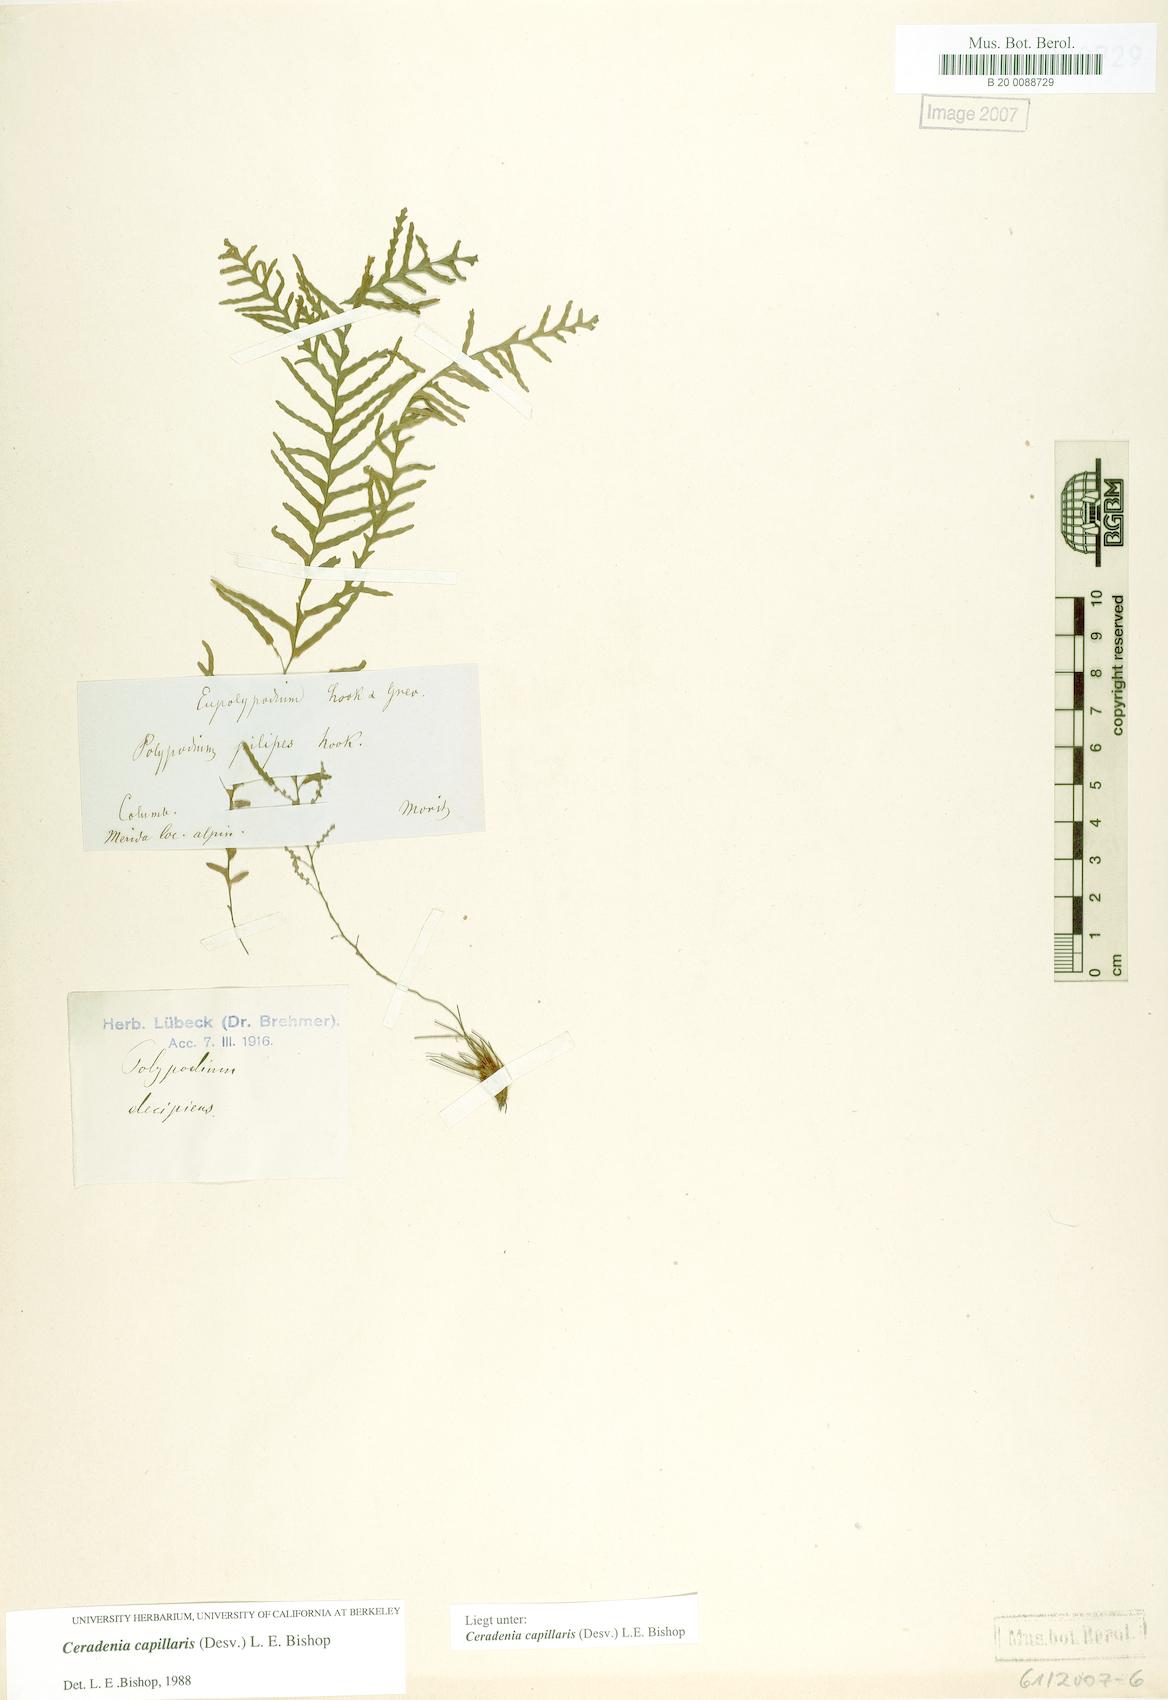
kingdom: Plantae
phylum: Tracheophyta
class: Polypodiopsida
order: Polypodiales
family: Polypodiaceae
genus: Ceradenia
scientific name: Ceradenia capillaris
